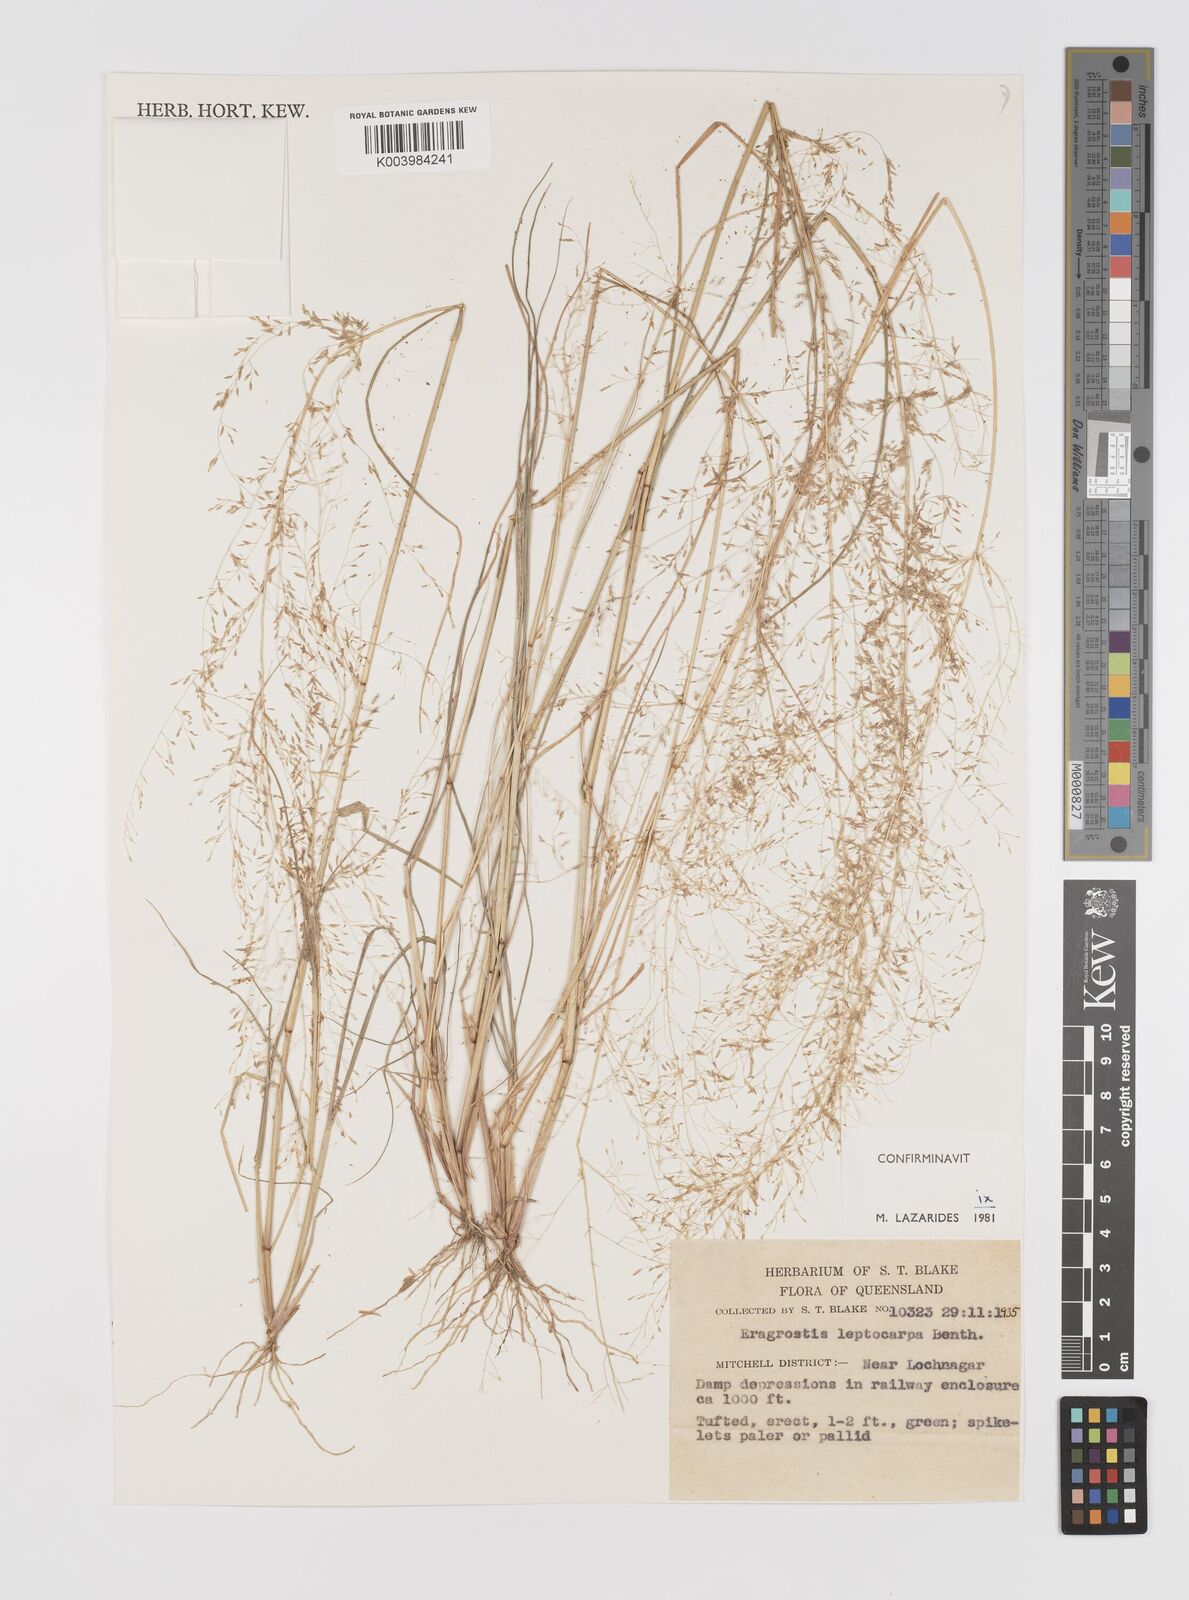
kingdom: Plantae
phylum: Tracheophyta
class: Liliopsida
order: Poales
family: Poaceae
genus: Eragrostis
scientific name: Eragrostis leptocarpa
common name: Drooping love grass
